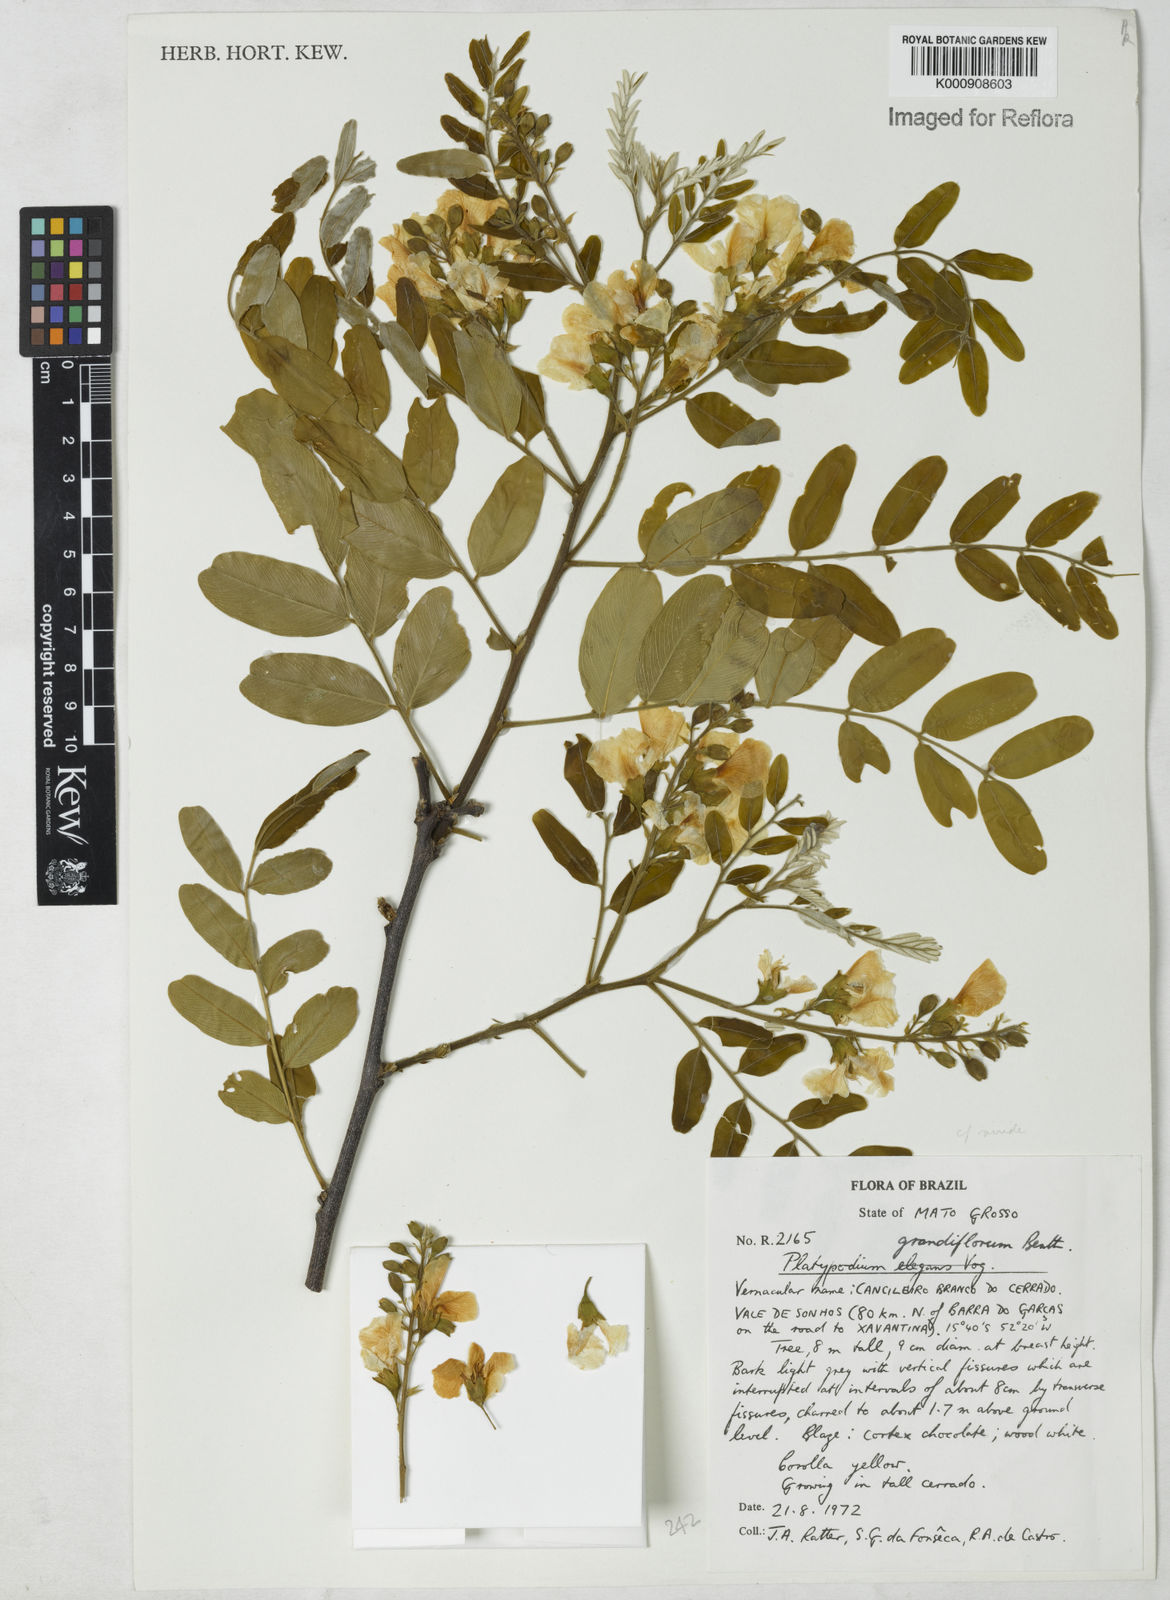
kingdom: Plantae
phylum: Tracheophyta
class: Magnoliopsida
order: Fabales
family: Fabaceae
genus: Platypodium
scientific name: Platypodium elegans
